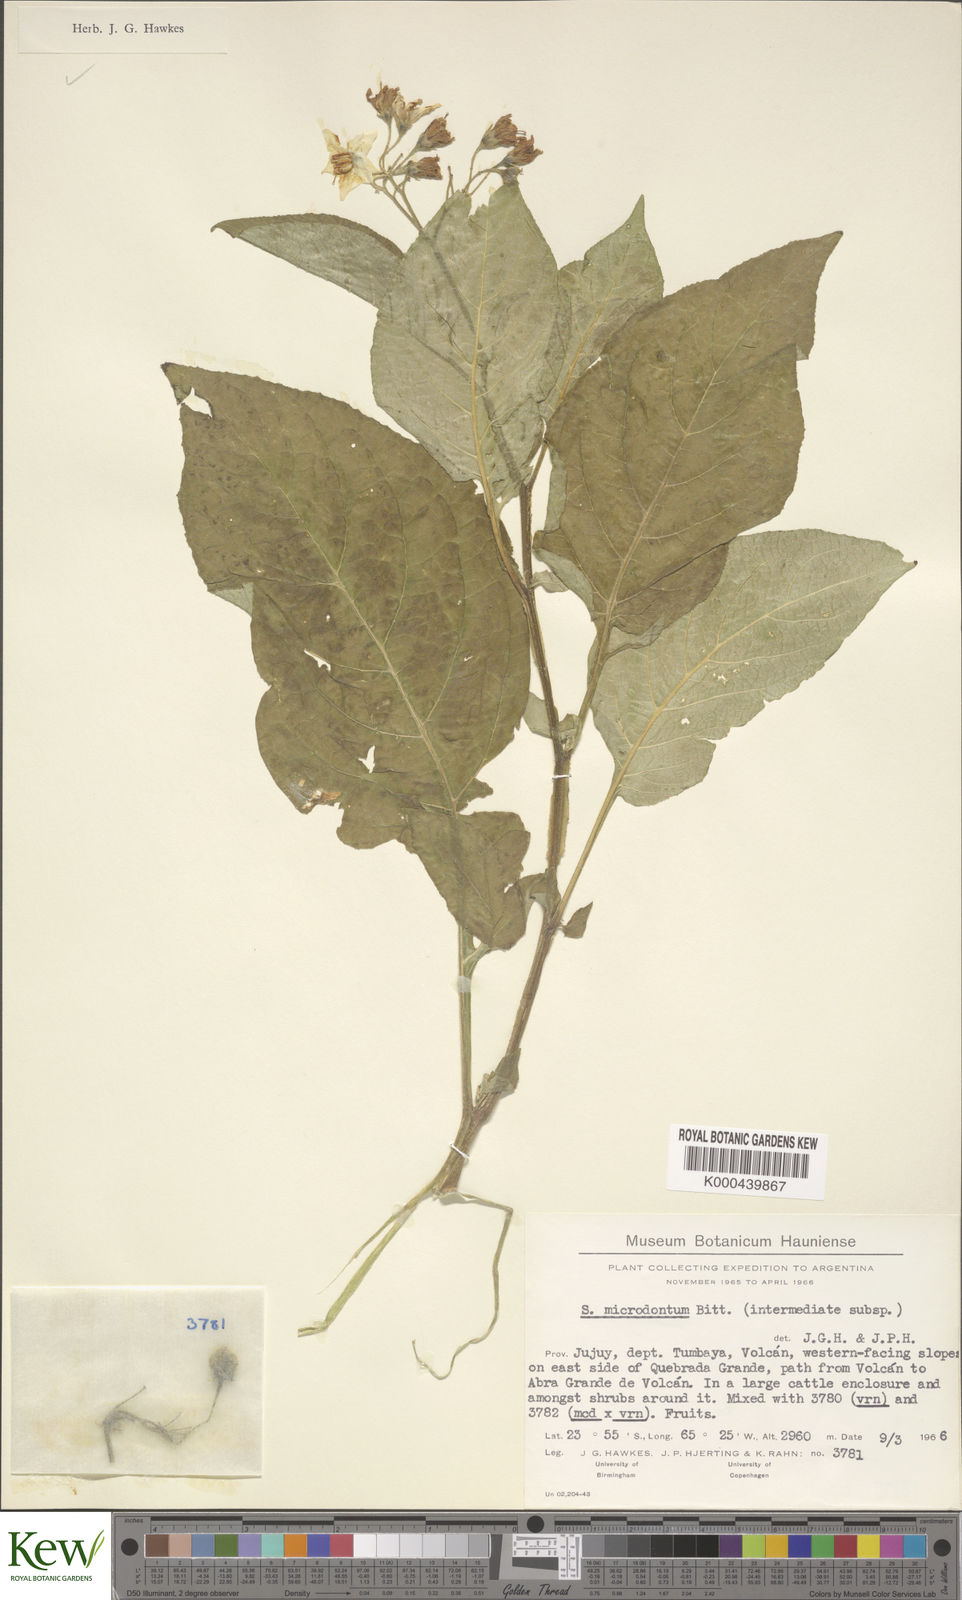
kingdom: Plantae
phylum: Tracheophyta
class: Magnoliopsida
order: Solanales
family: Solanaceae
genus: Solanum
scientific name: Solanum microdontum
